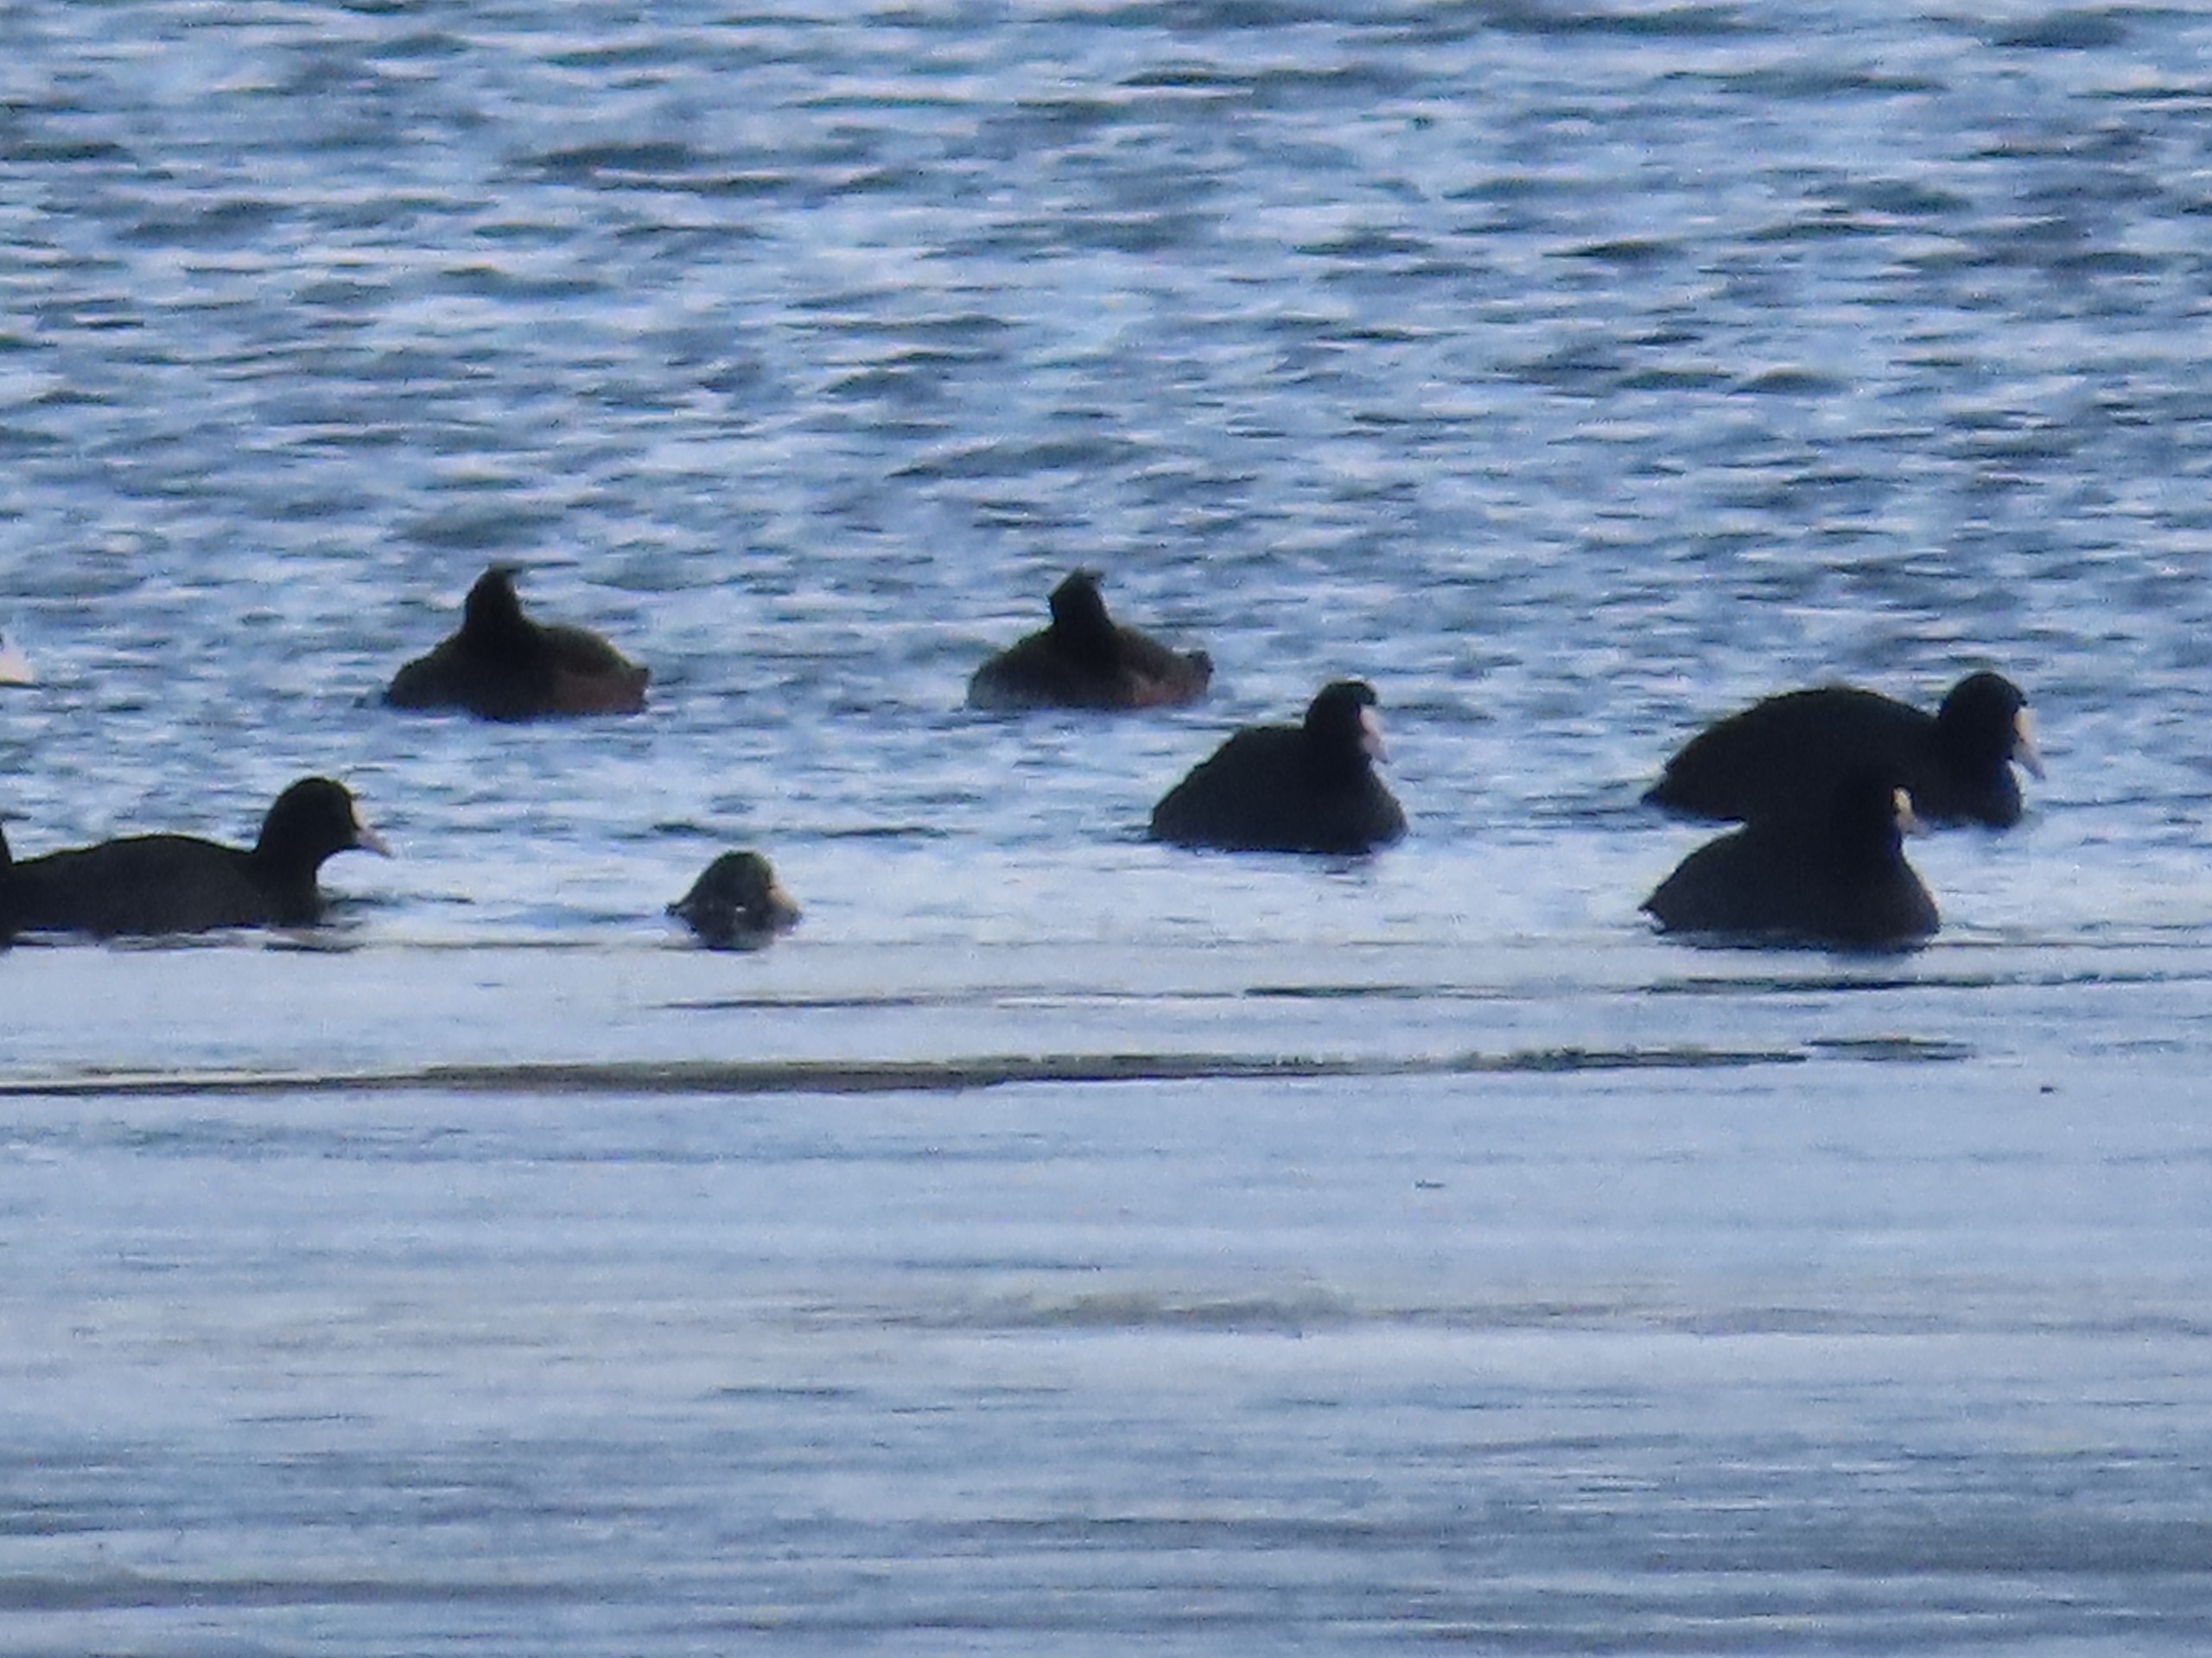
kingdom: Animalia
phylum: Chordata
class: Aves
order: Gruiformes
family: Rallidae
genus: Fulica
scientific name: Fulica atra
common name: Blishøne
